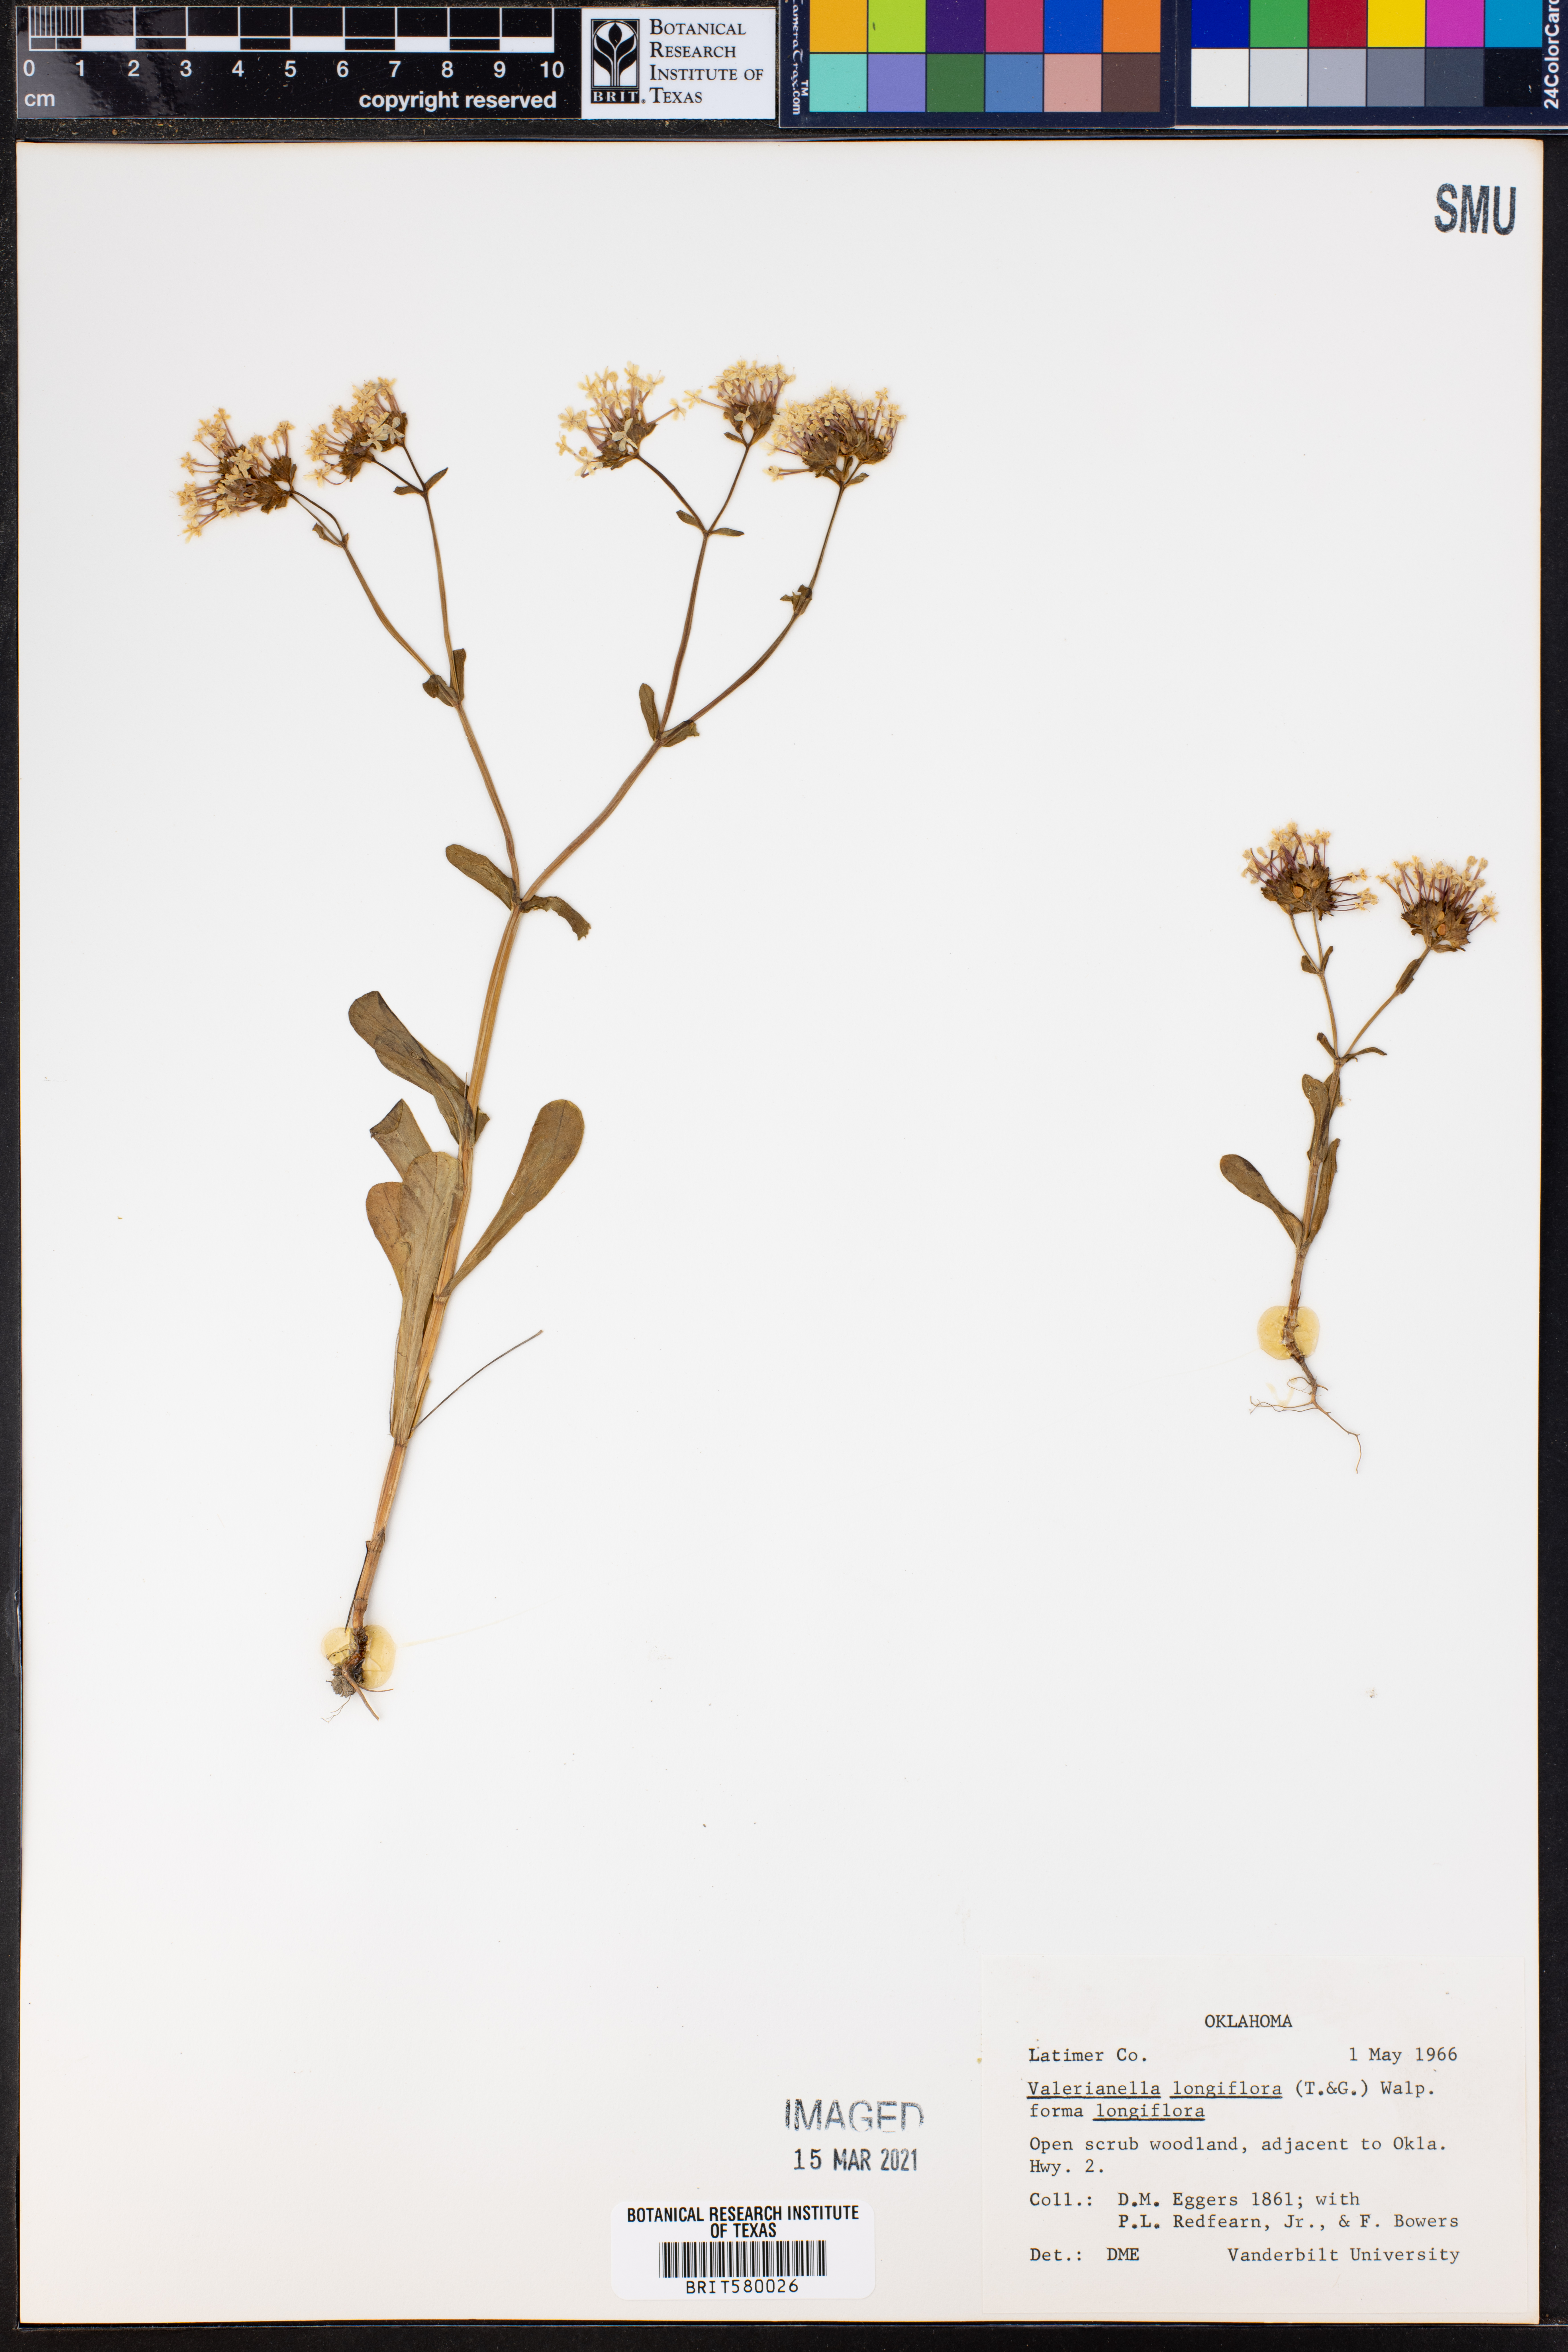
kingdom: Plantae
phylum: Tracheophyta
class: Magnoliopsida
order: Dipsacales
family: Caprifoliaceae
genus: Plectritis
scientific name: Plectritis longiflora
